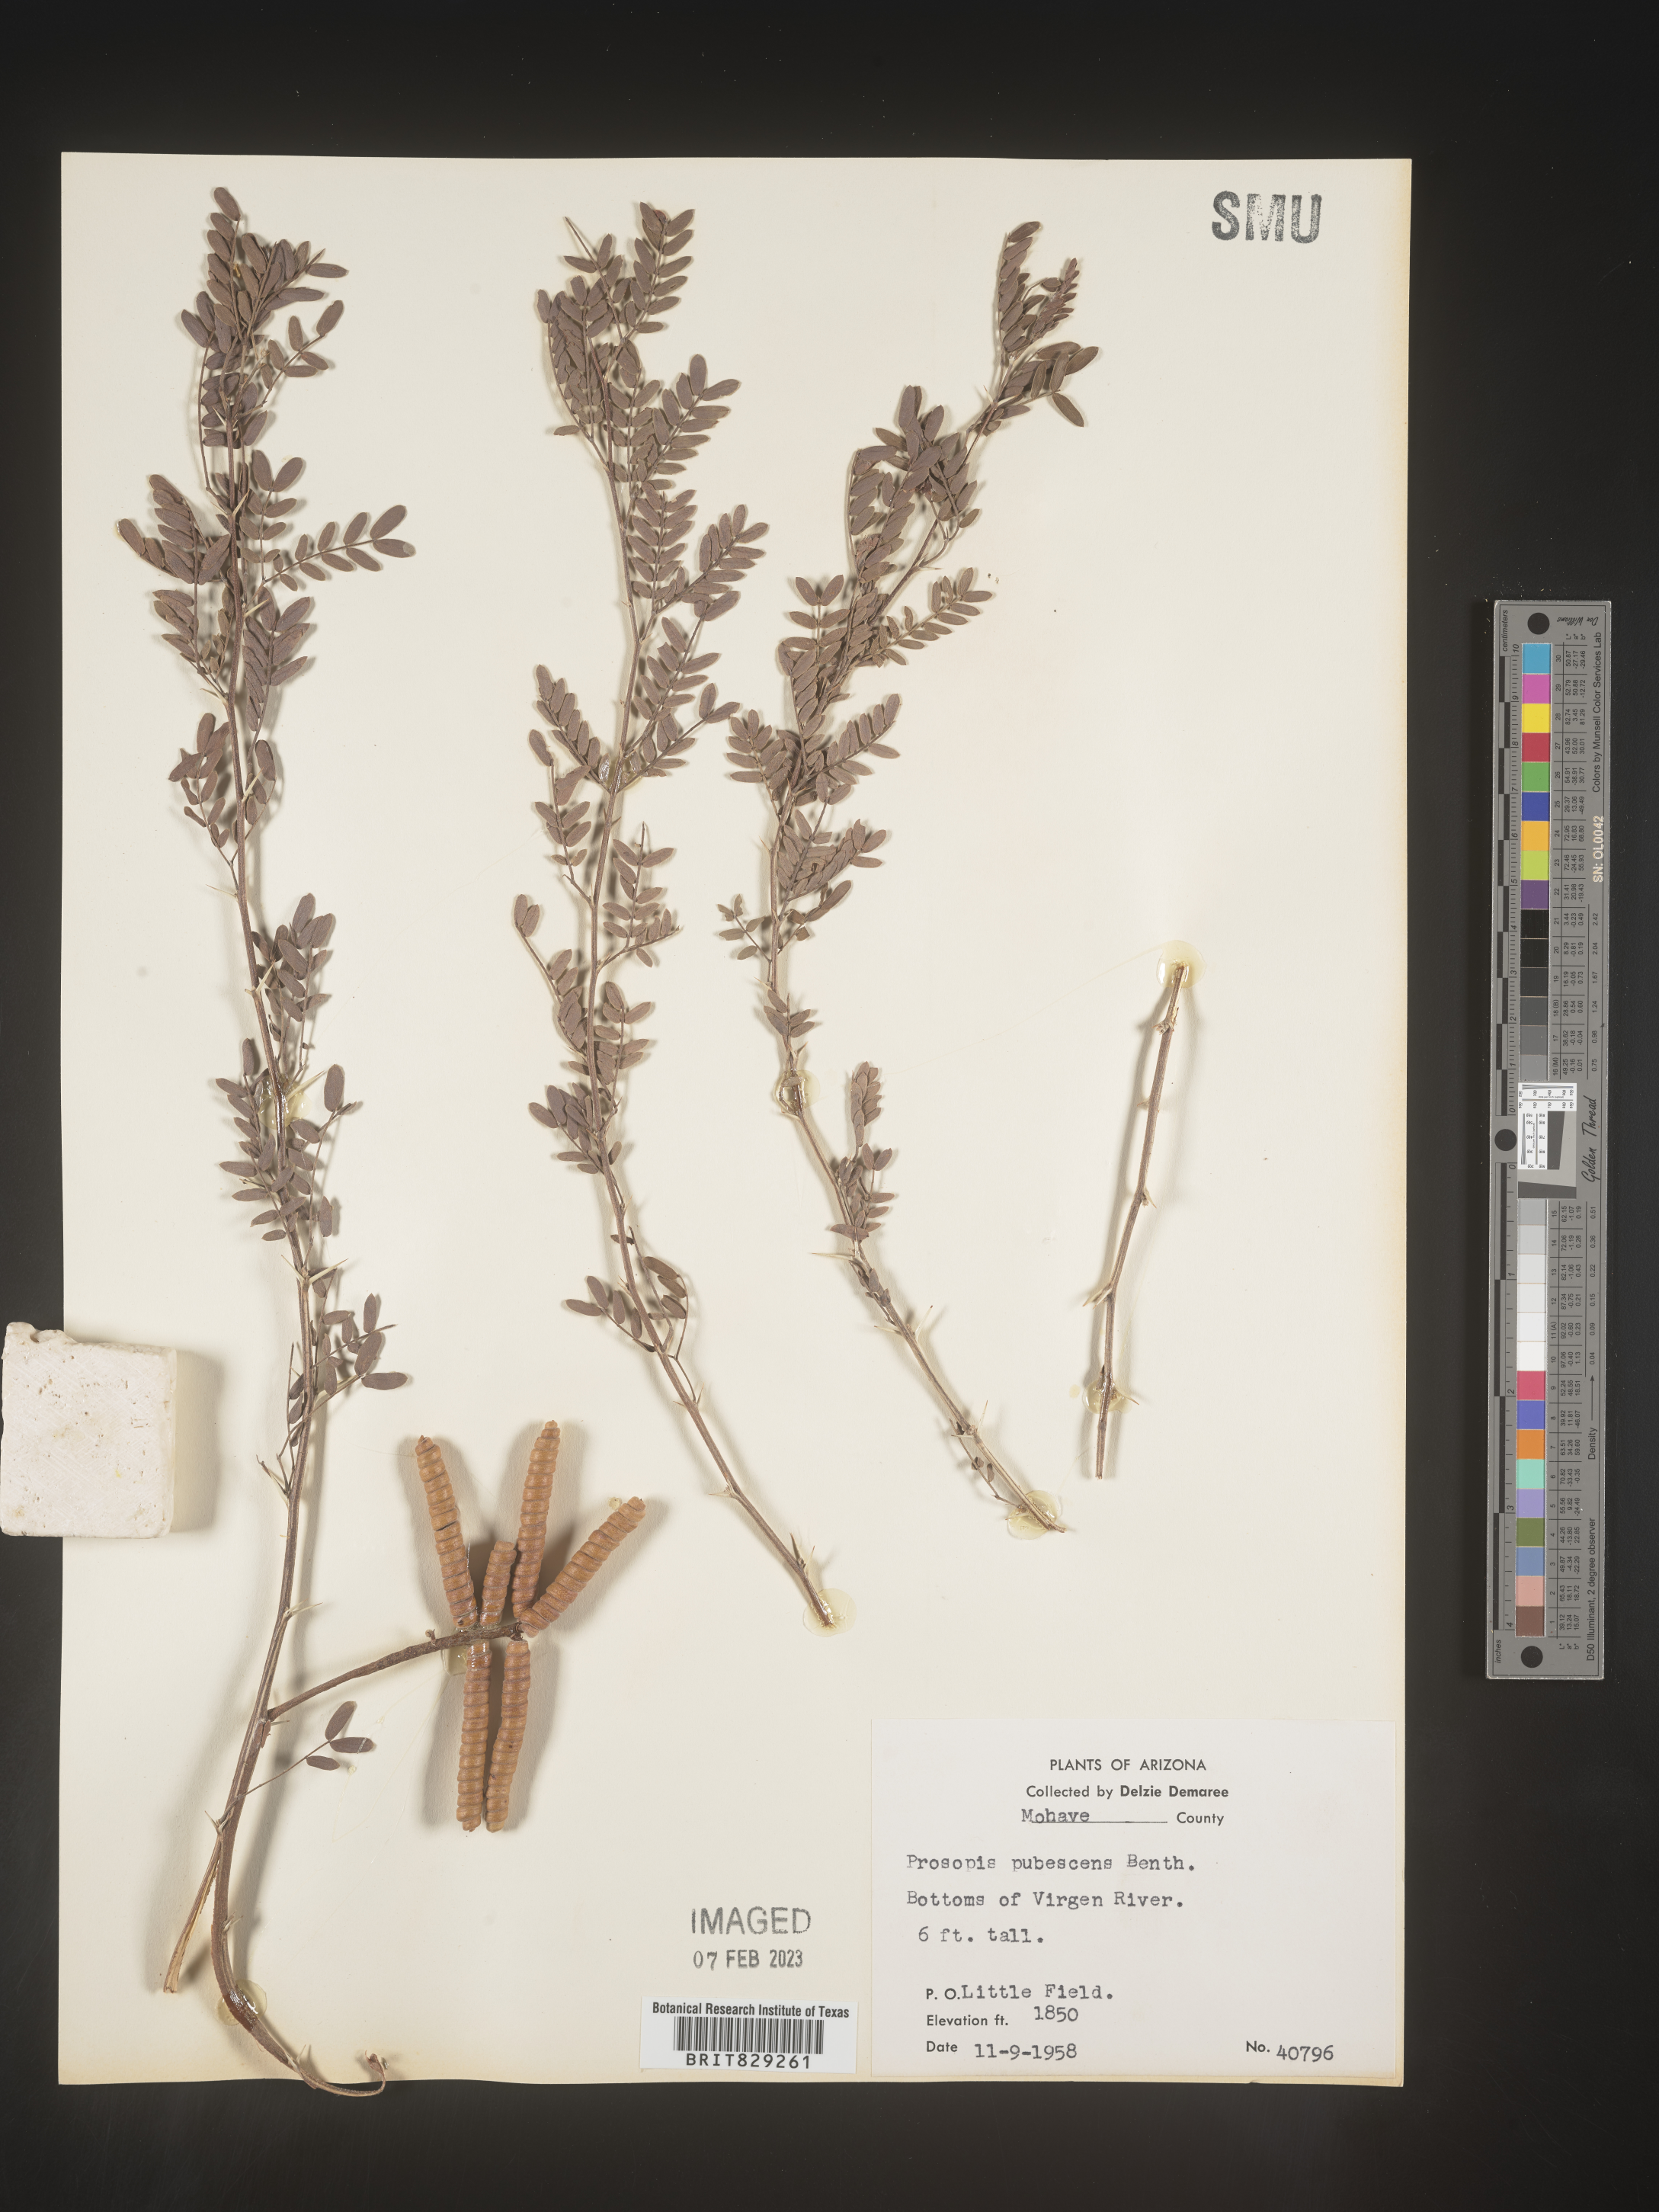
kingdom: Plantae
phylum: Tracheophyta
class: Magnoliopsida
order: Fabales
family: Fabaceae
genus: Prosopis
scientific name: Prosopis
